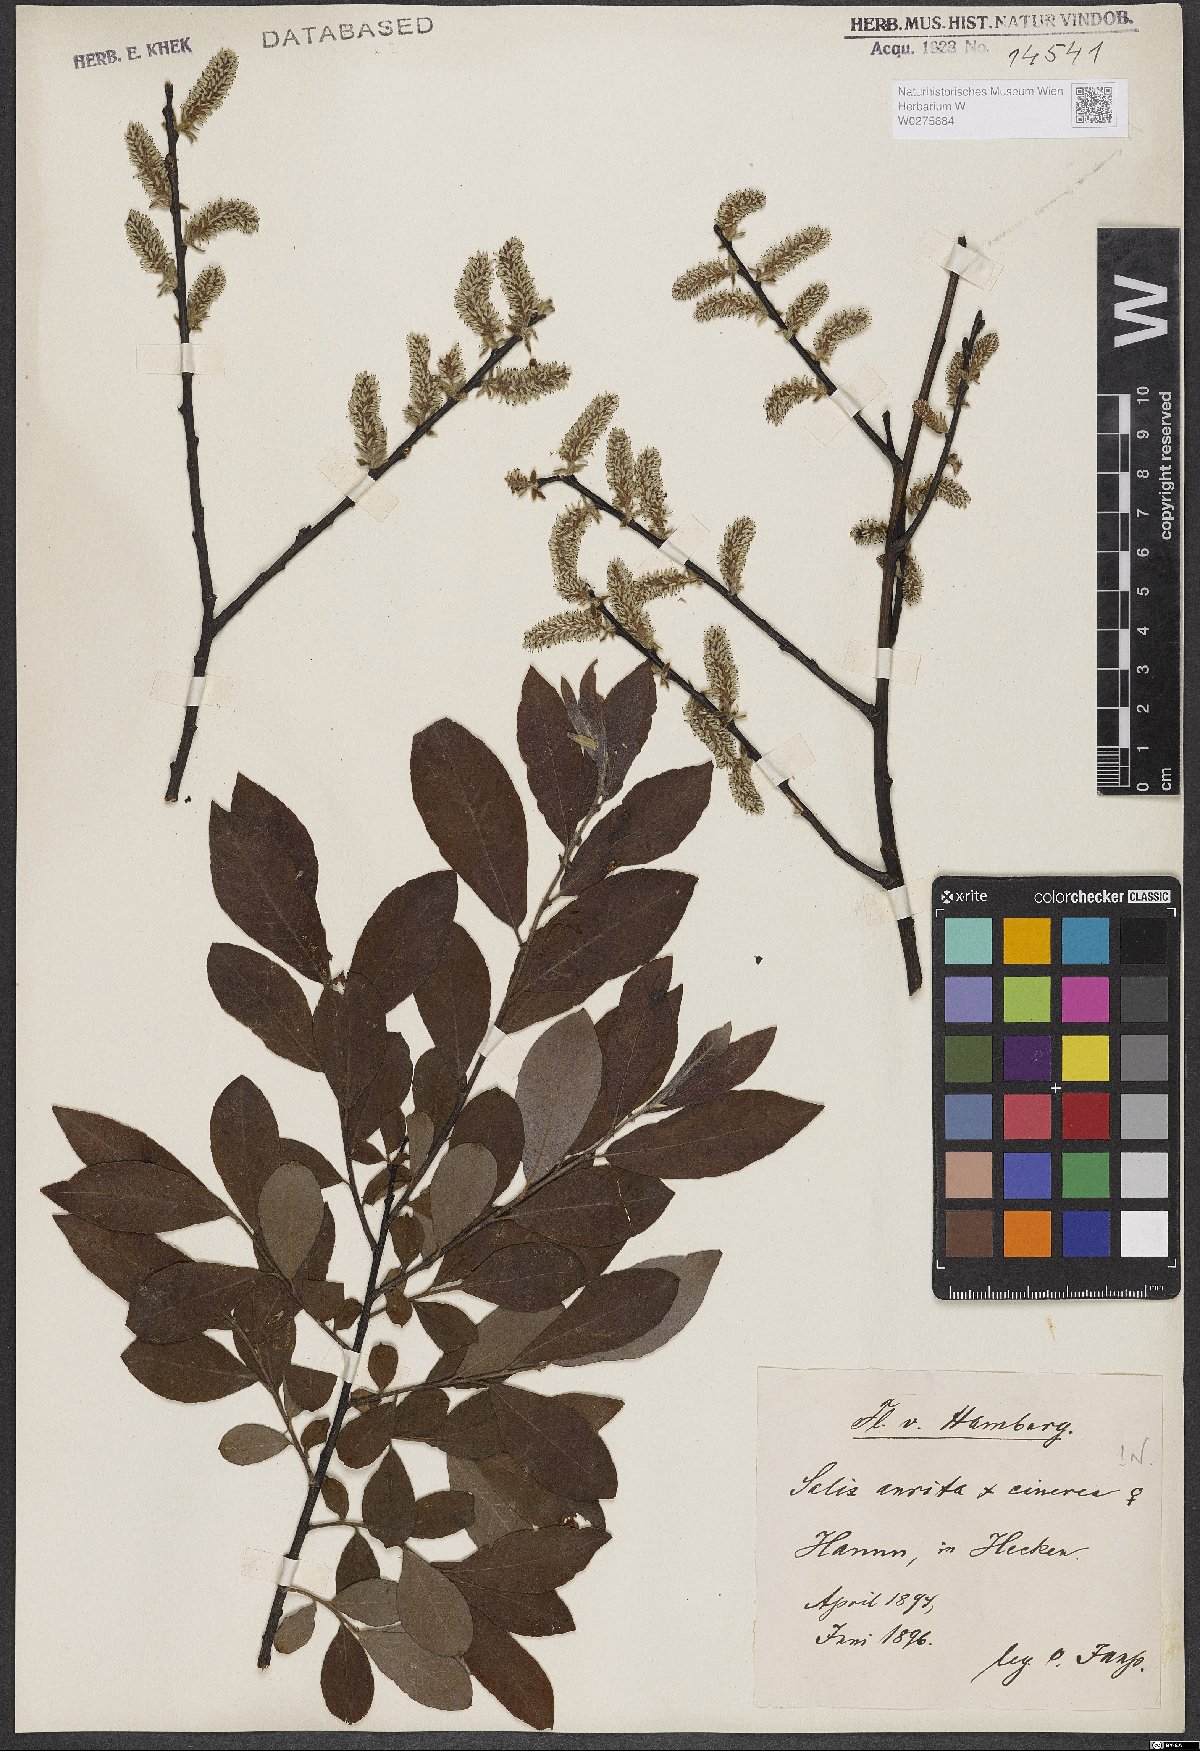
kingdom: Plantae
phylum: Tracheophyta
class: Magnoliopsida
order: Malpighiales
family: Salicaceae
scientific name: Salicaceae
